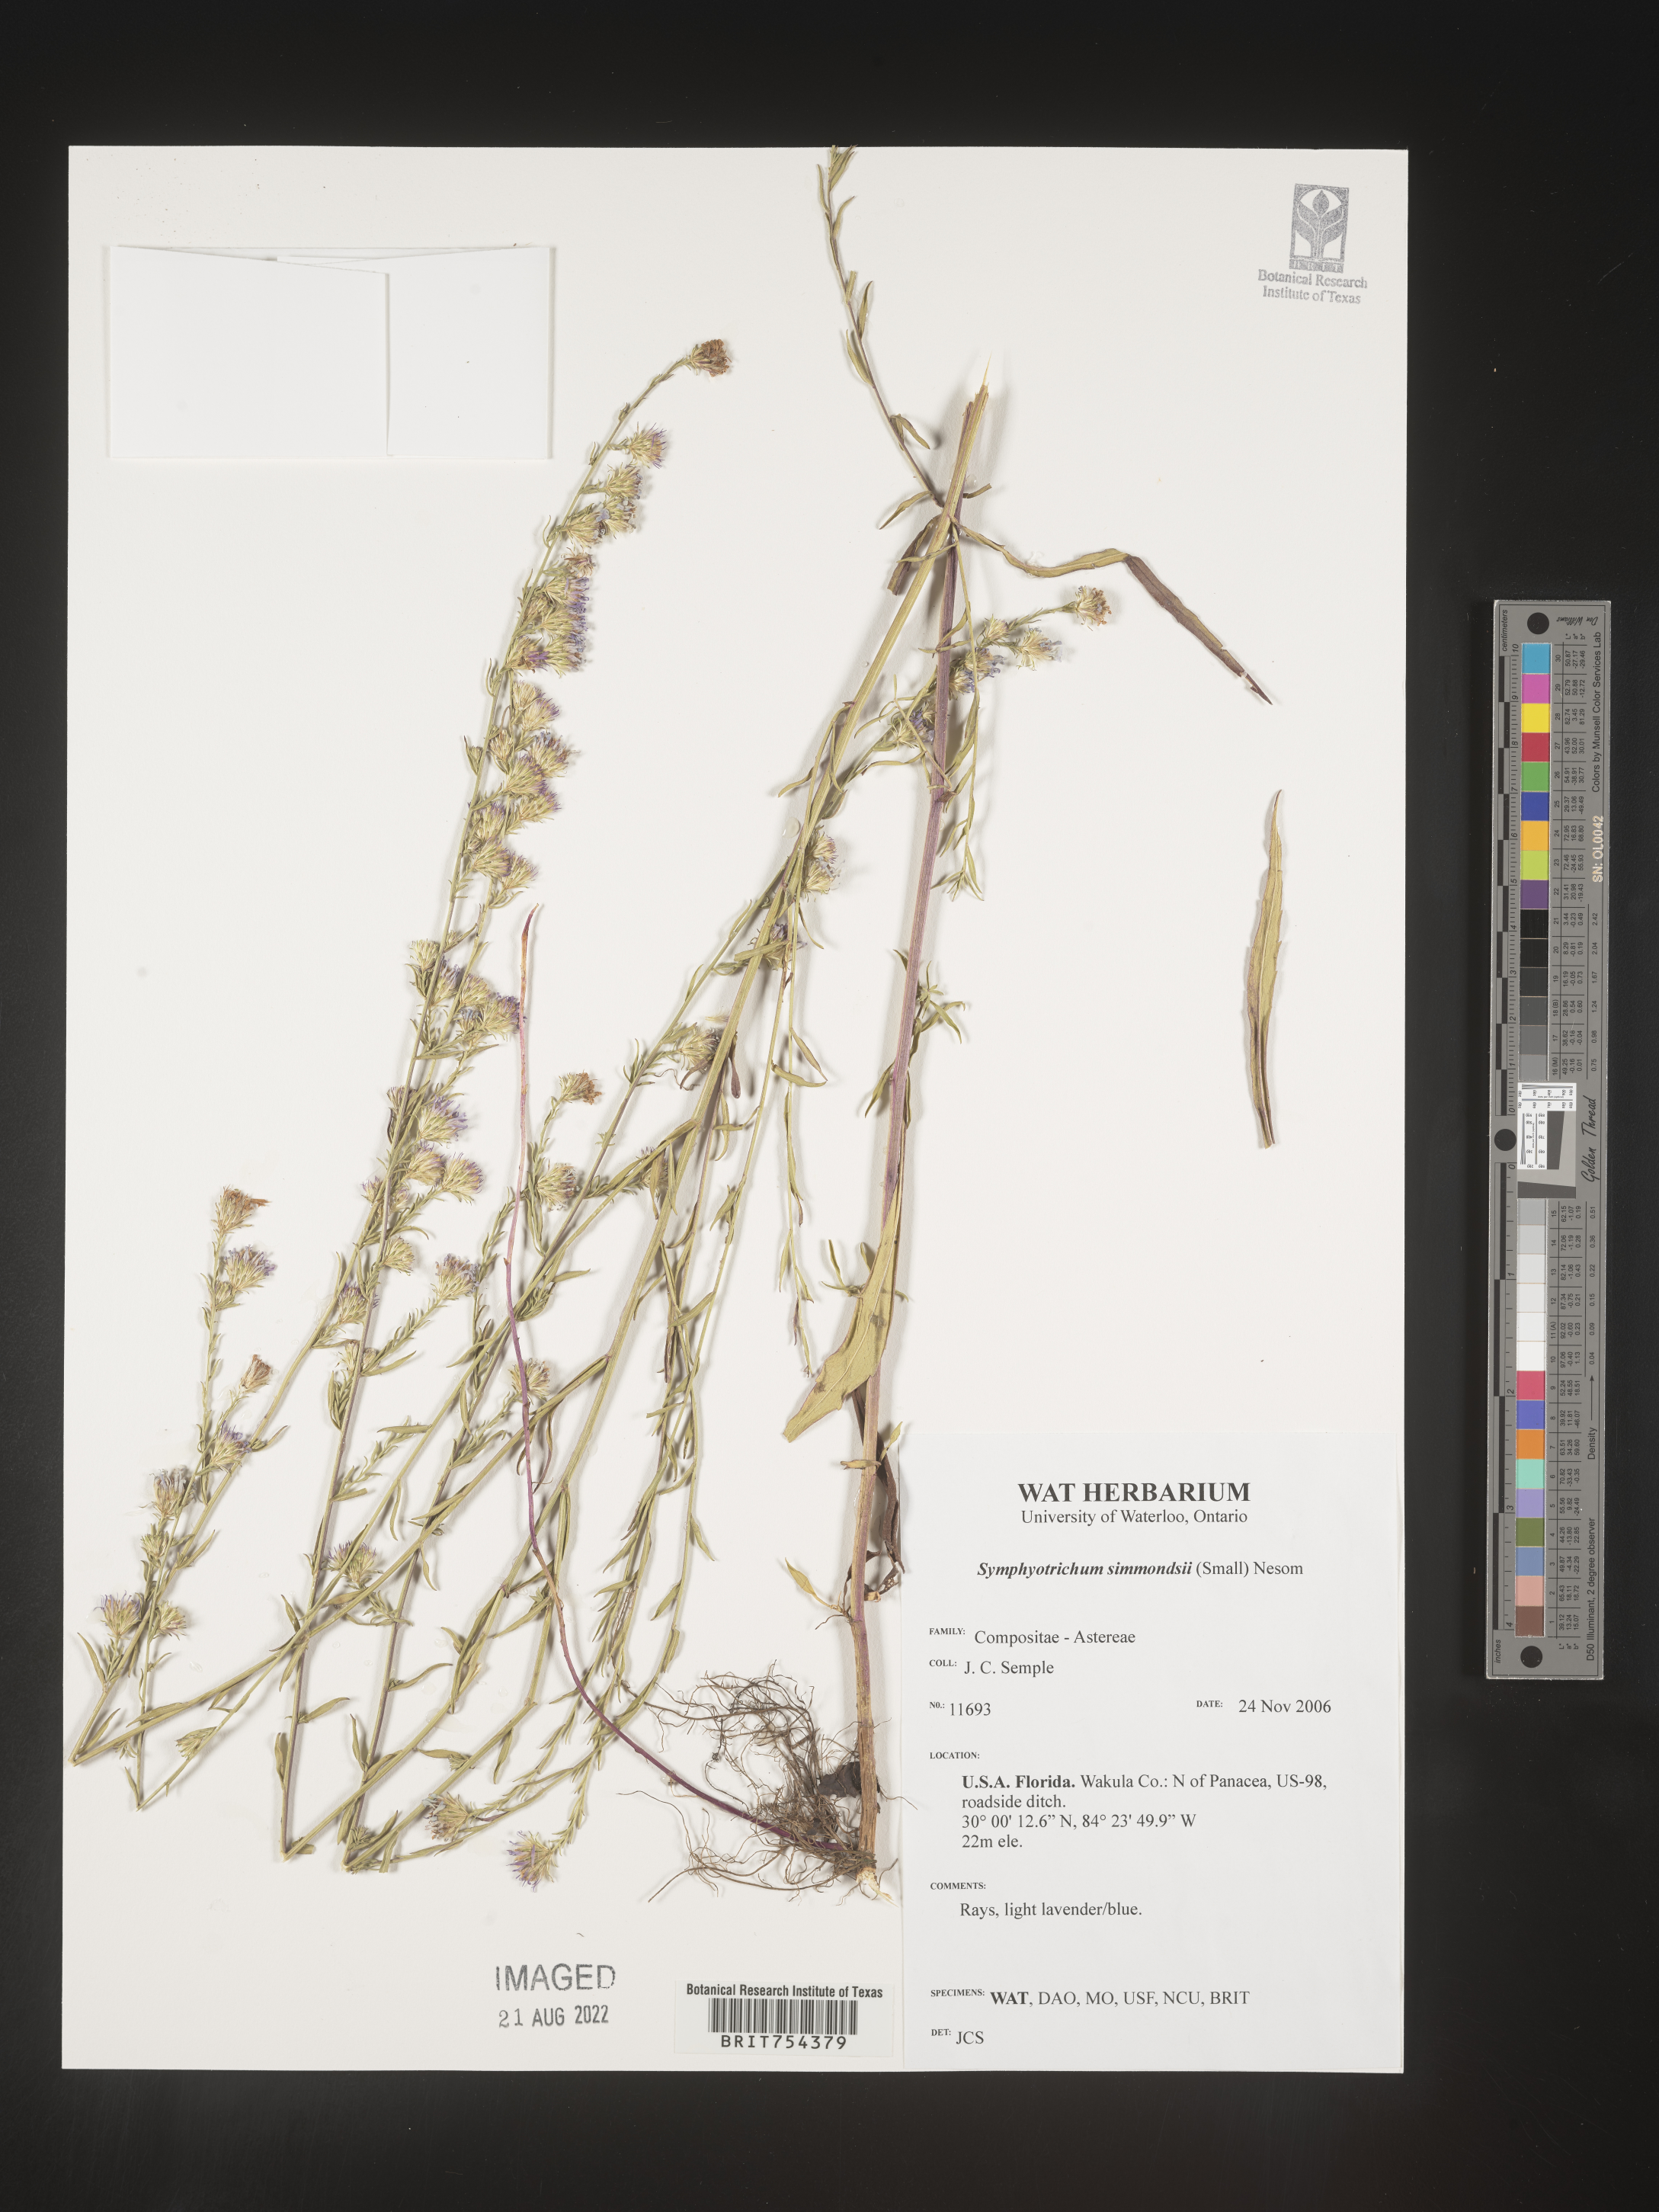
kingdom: Plantae
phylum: Tracheophyta
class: Magnoliopsida
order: Asterales
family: Asteraceae
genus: Symphyotrichum
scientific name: Symphyotrichum simmondsii
